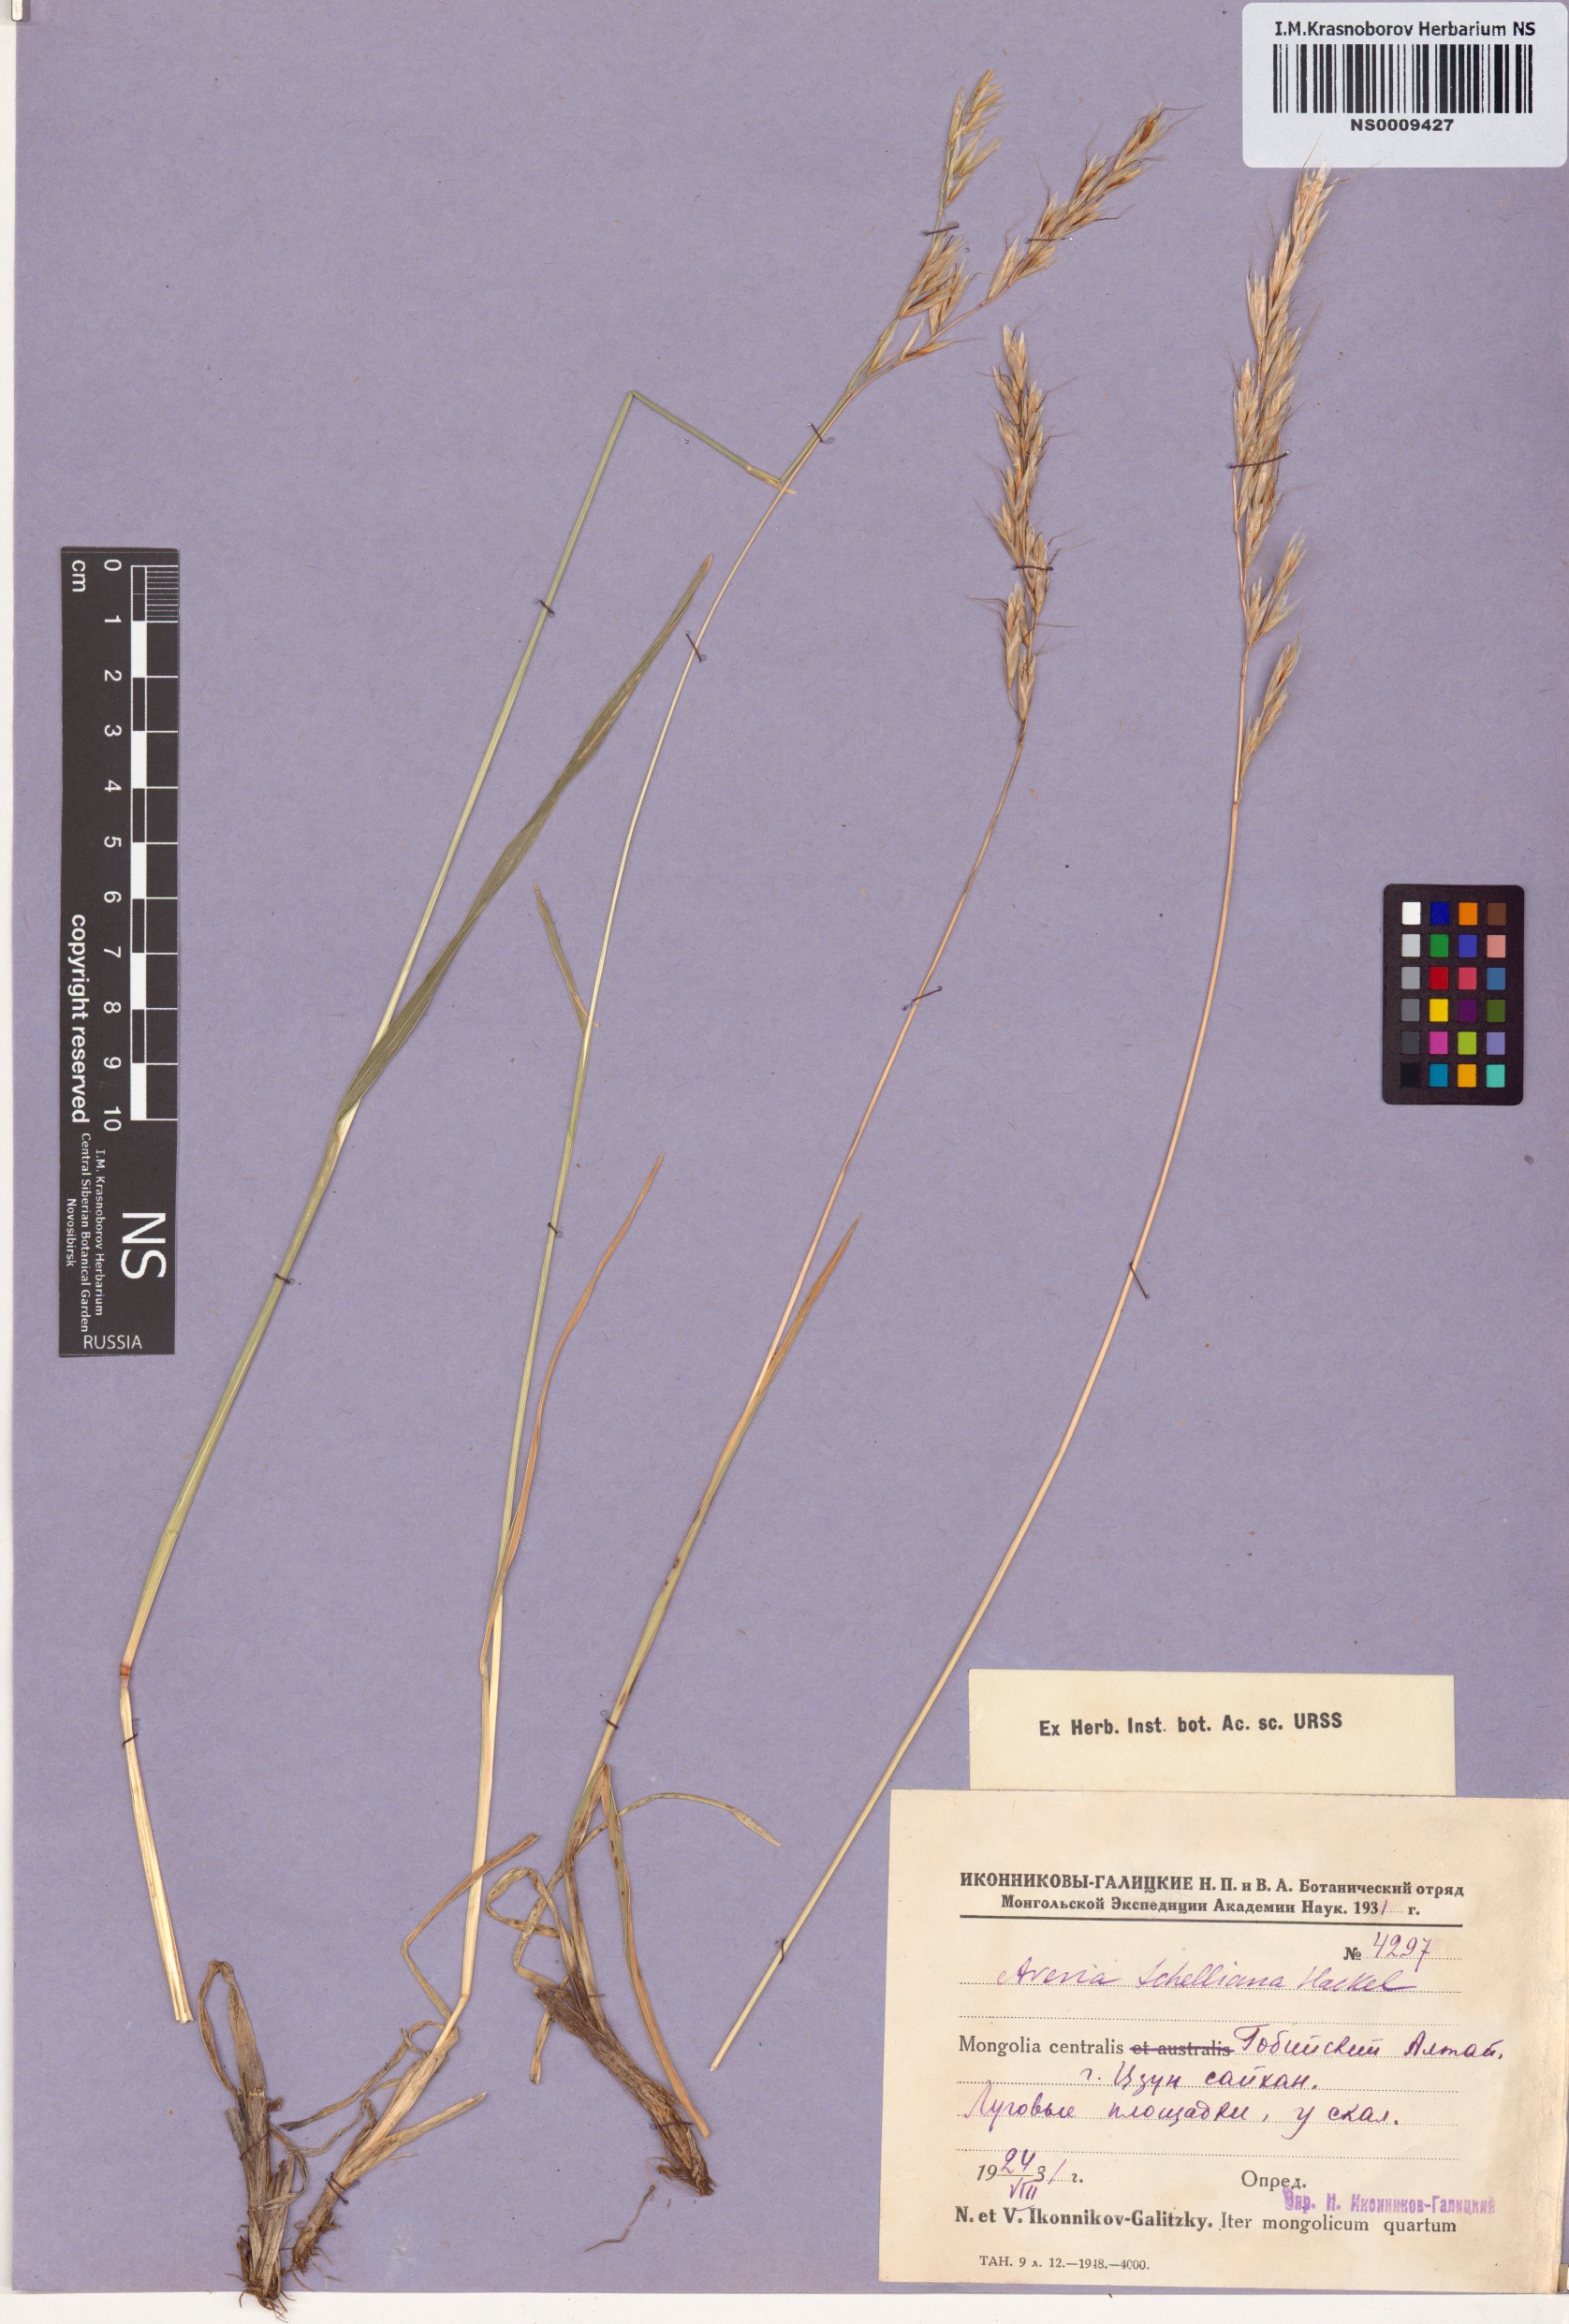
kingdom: Plantae
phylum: Tracheophyta
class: Liliopsida
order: Poales
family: Poaceae
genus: Helictochloa
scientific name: Helictochloa hookeri
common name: Hooker's alpine oatgrass
